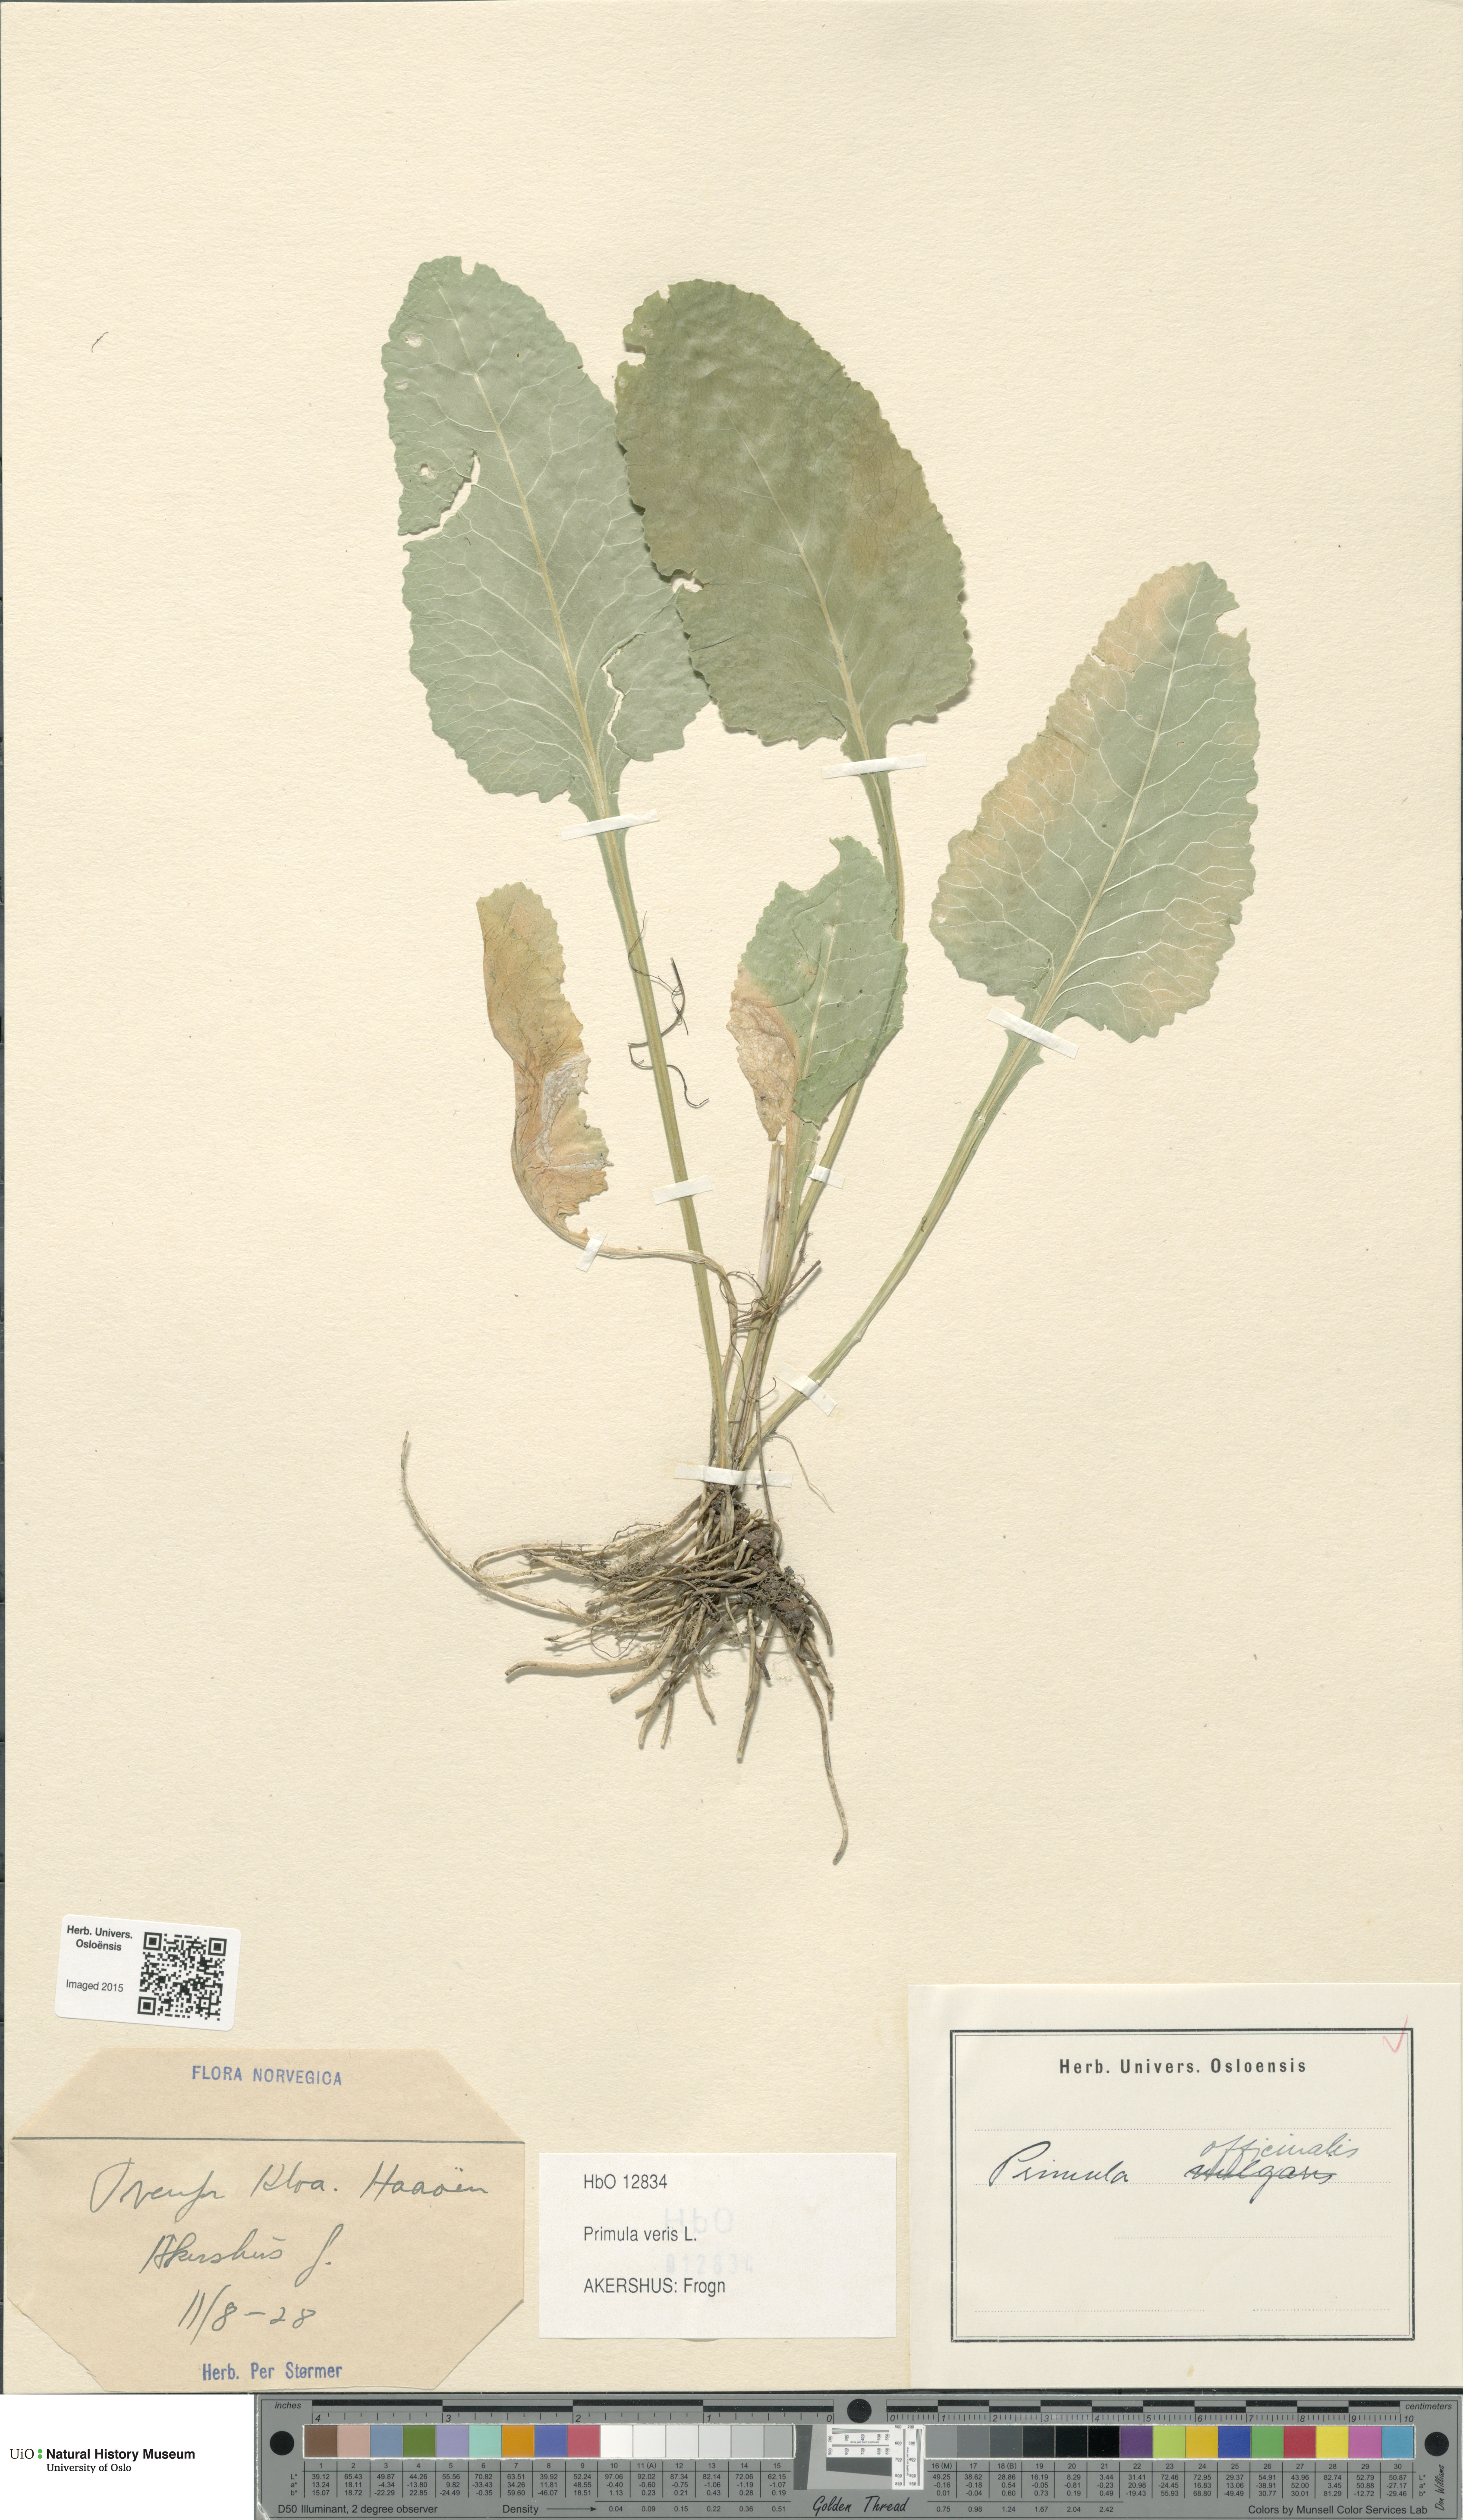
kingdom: Plantae
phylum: Tracheophyta
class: Magnoliopsida
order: Ericales
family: Primulaceae
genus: Primula
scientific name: Primula veris
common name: Cowslip
